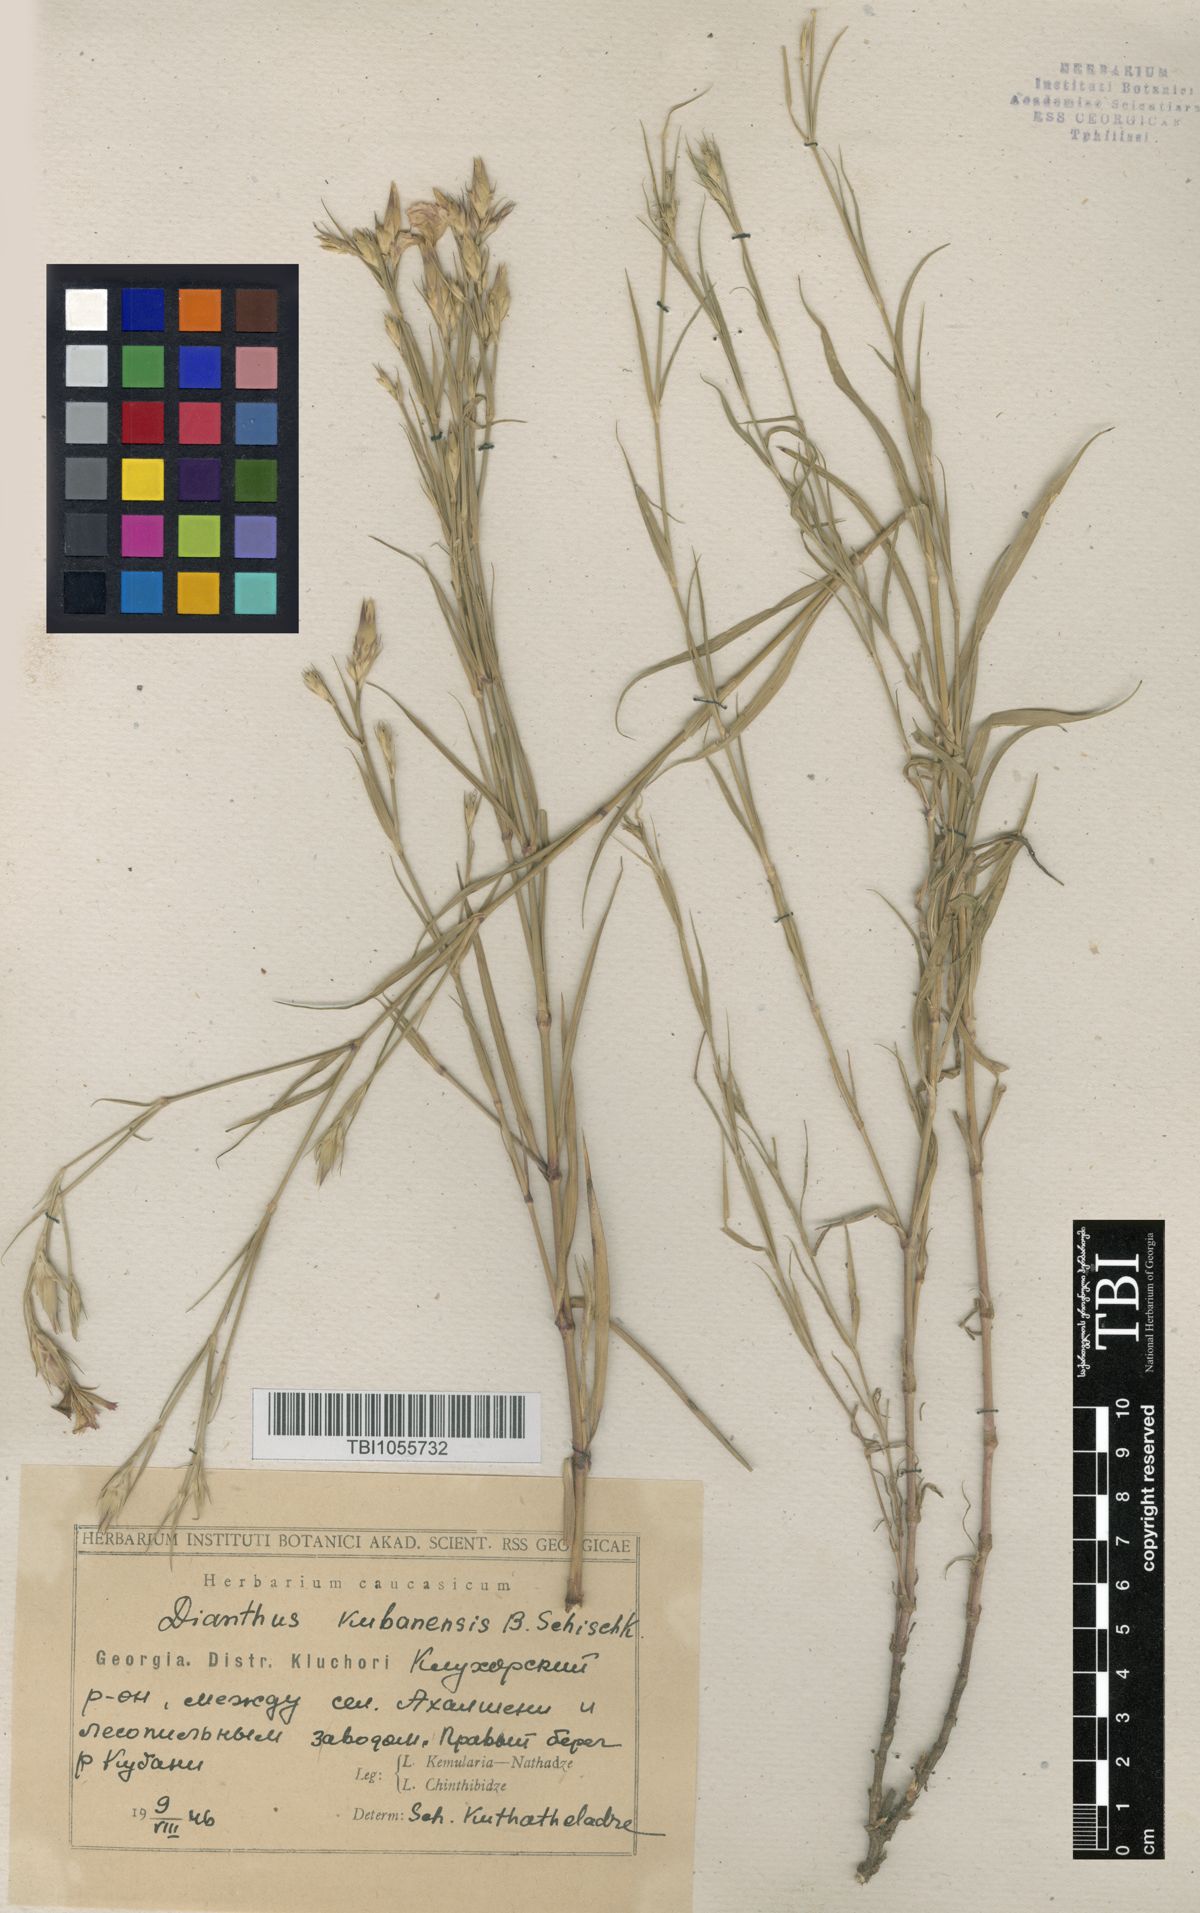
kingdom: Plantae
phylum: Tracheophyta
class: Magnoliopsida
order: Caryophyllales
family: Caryophyllaceae
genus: Dianthus
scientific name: Dianthus
